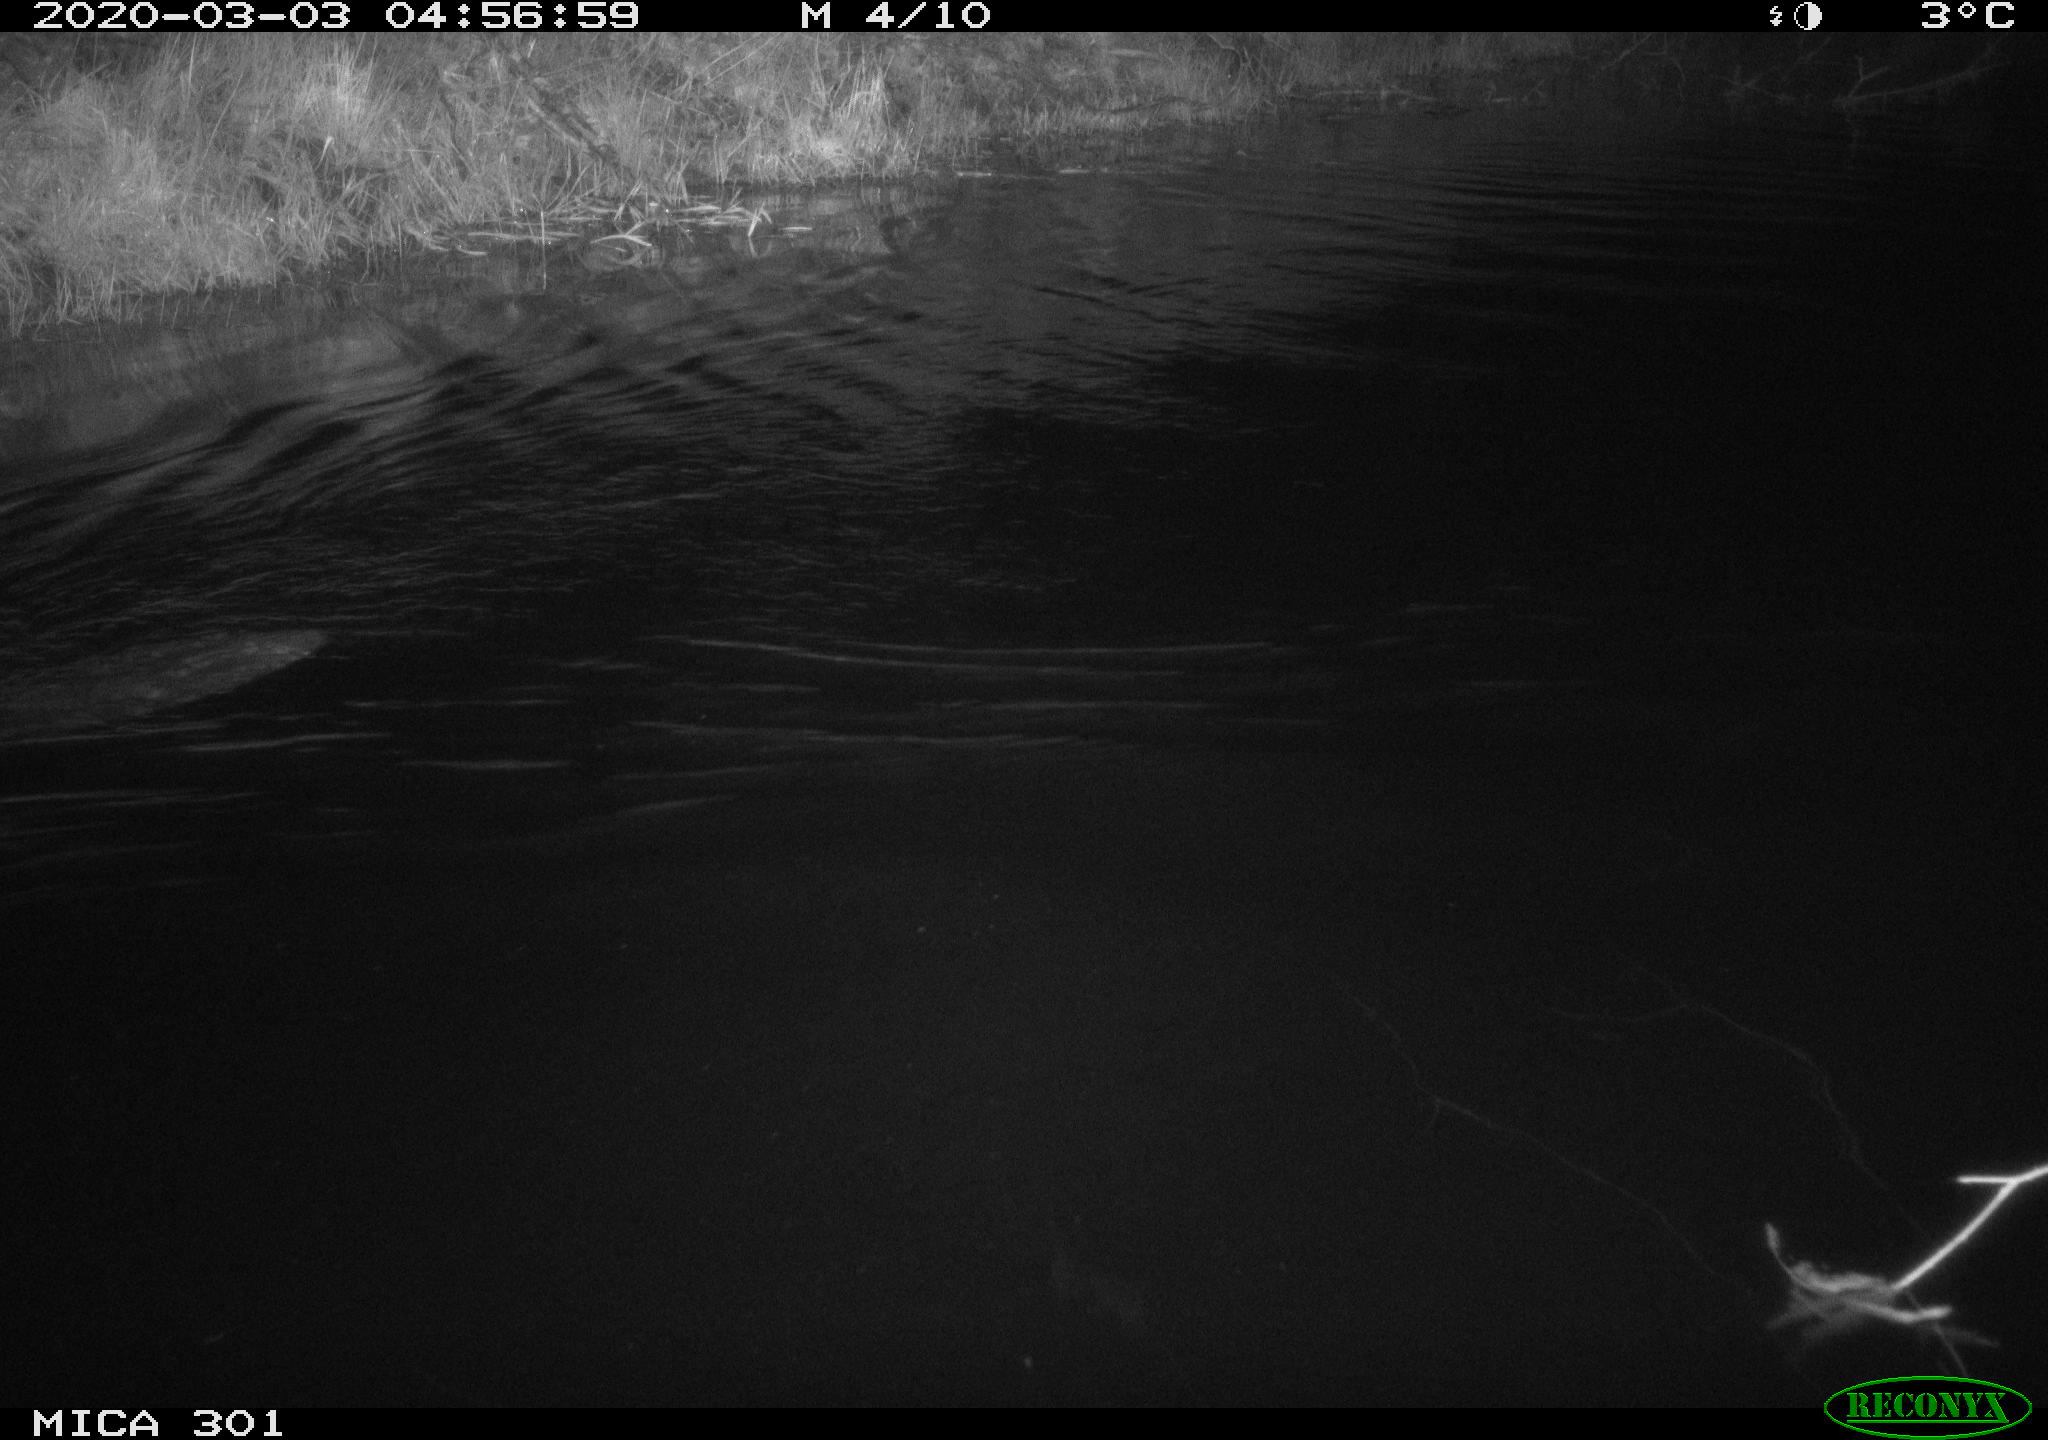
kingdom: Animalia
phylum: Chordata
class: Mammalia
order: Rodentia
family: Castoridae
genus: Castor
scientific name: Castor fiber
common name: Eurasian beaver
